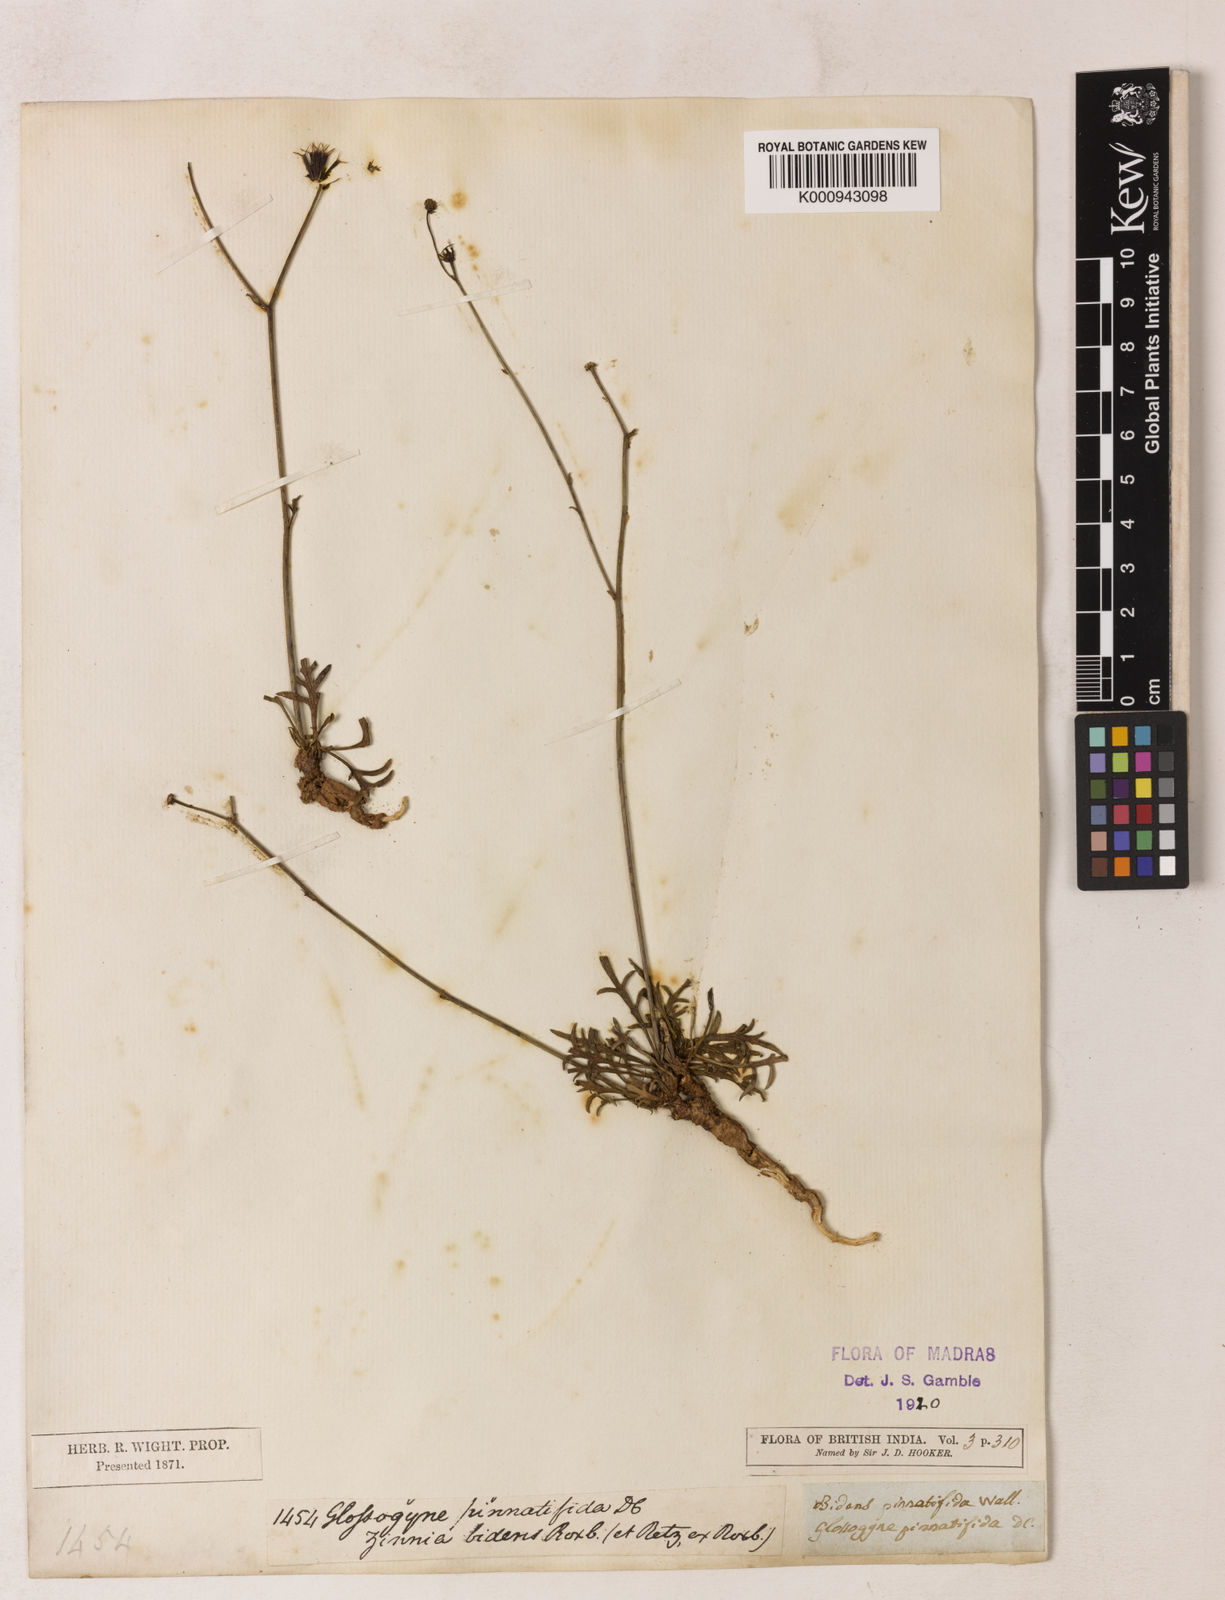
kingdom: Plantae
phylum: Tracheophyta
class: Magnoliopsida
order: Asterales
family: Asteraceae
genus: Glossocardia
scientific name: Glossocardia bidens
